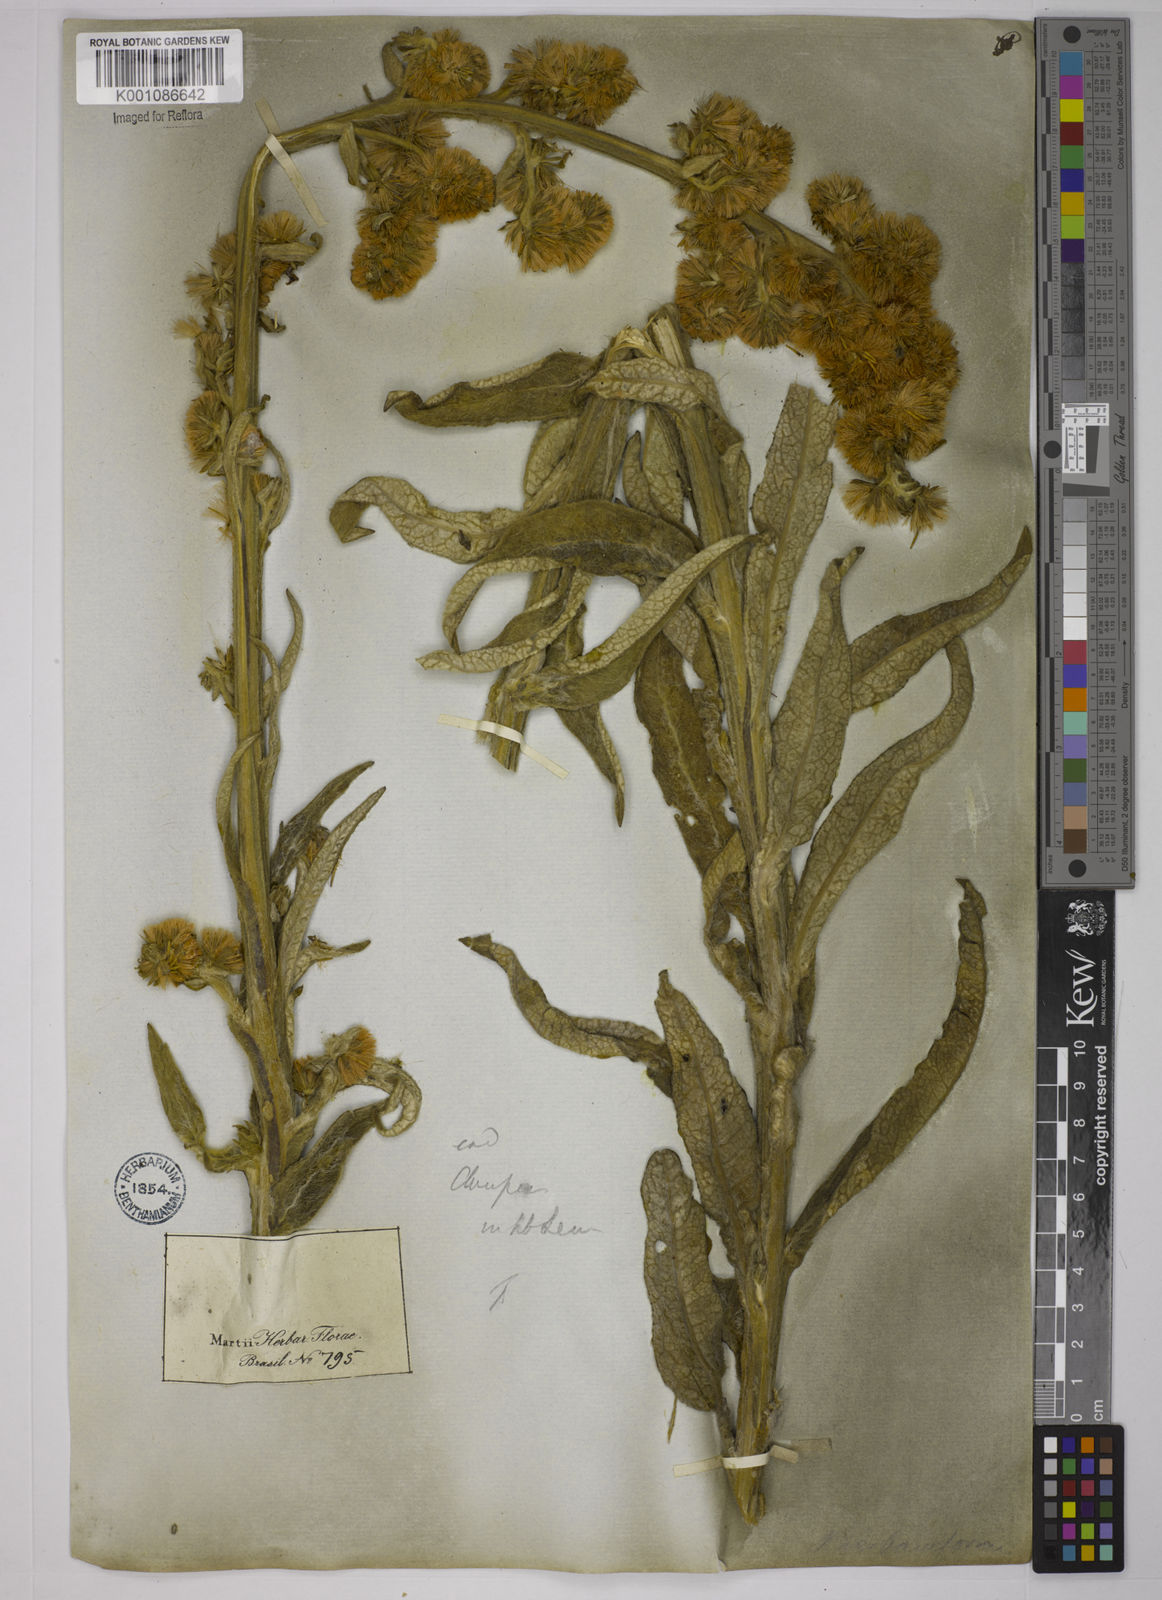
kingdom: Plantae
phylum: Tracheophyta
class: Magnoliopsida
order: Asterales
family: Asteraceae
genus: Trixis
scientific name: Trixis nobilis
